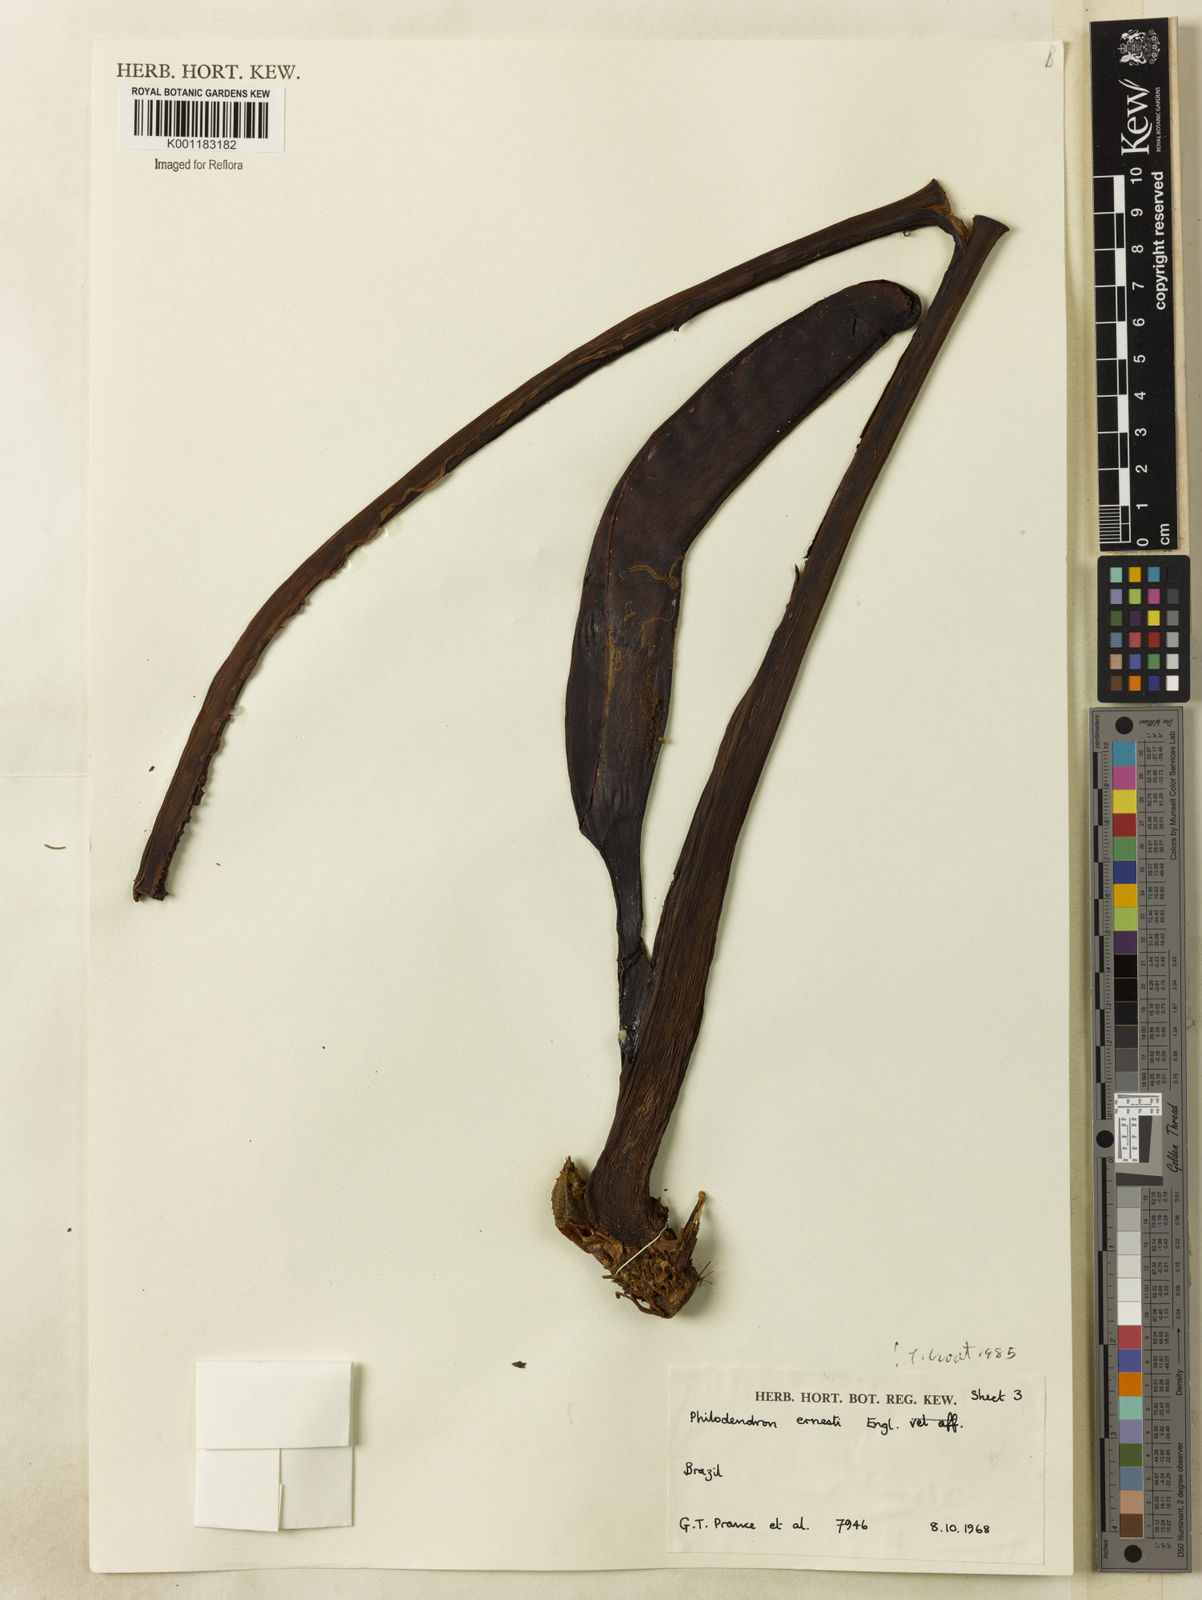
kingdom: Plantae
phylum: Tracheophyta
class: Liliopsida
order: Alismatales
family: Araceae
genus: Philodendron
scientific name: Philodendron ernestii
